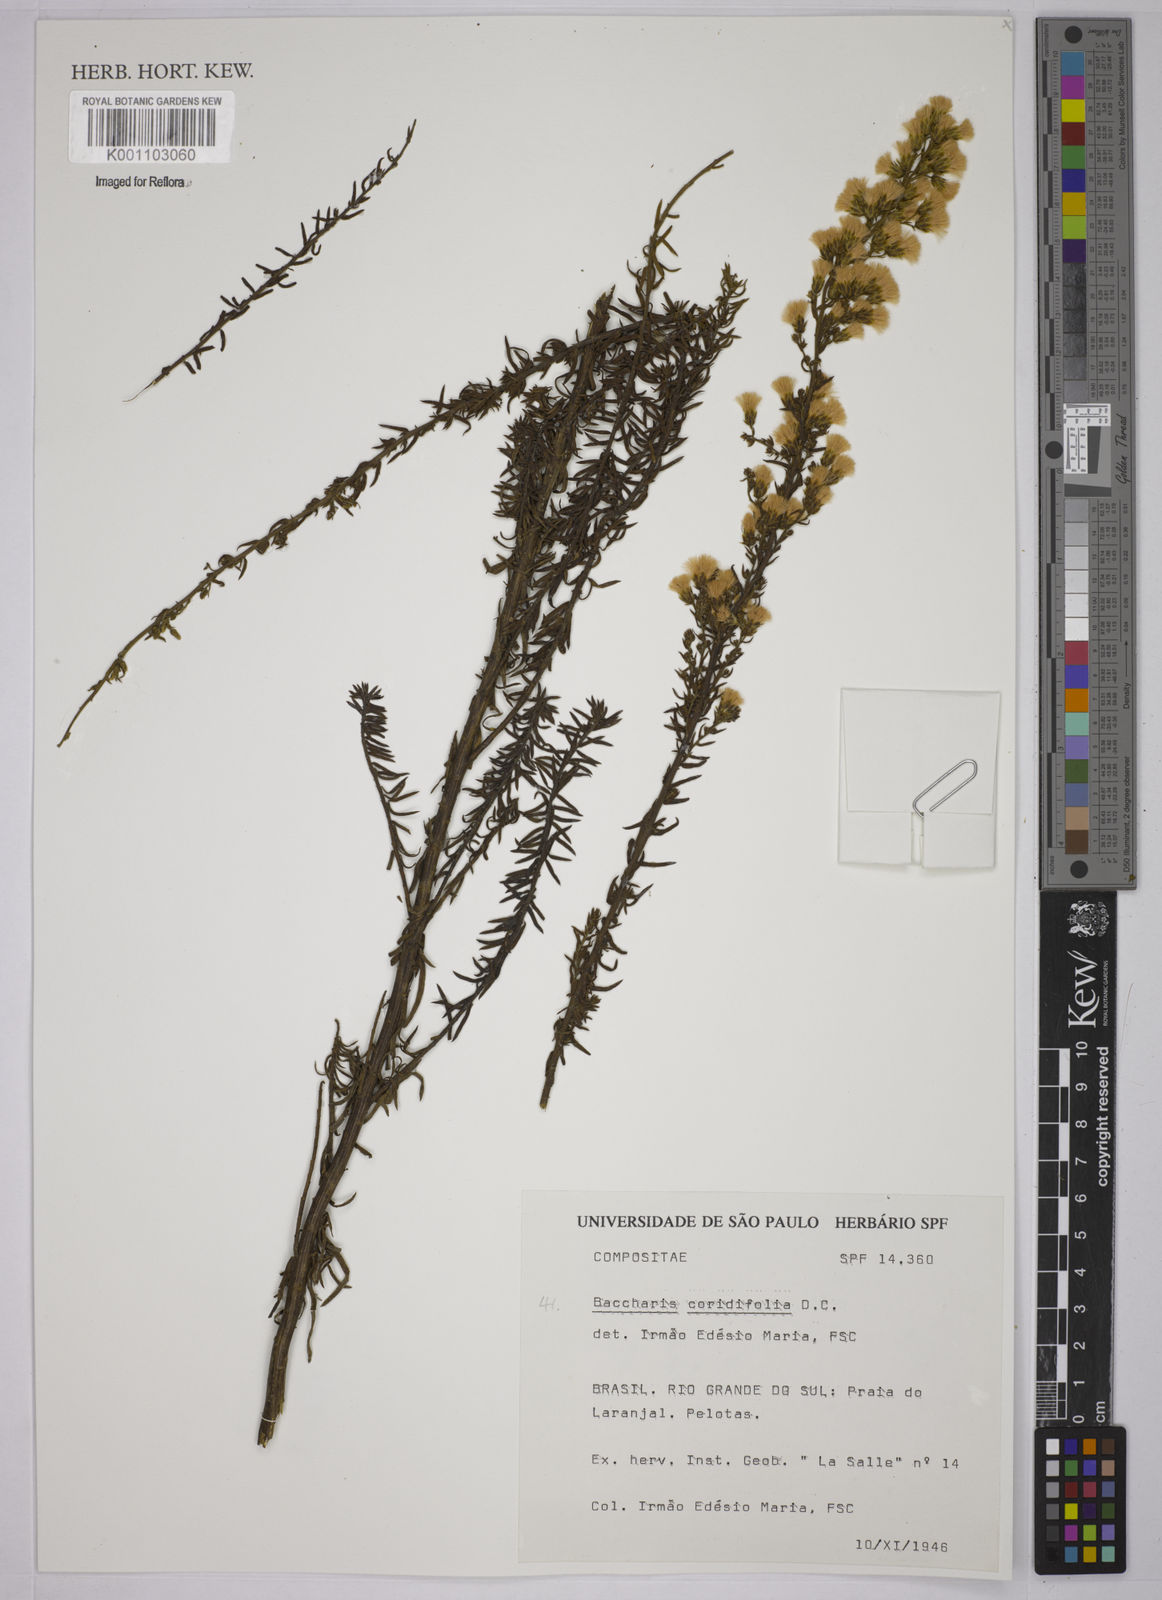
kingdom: Plantae
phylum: Tracheophyta
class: Magnoliopsida
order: Asterales
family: Asteraceae
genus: Baccharis
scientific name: Baccharis coridifolia
